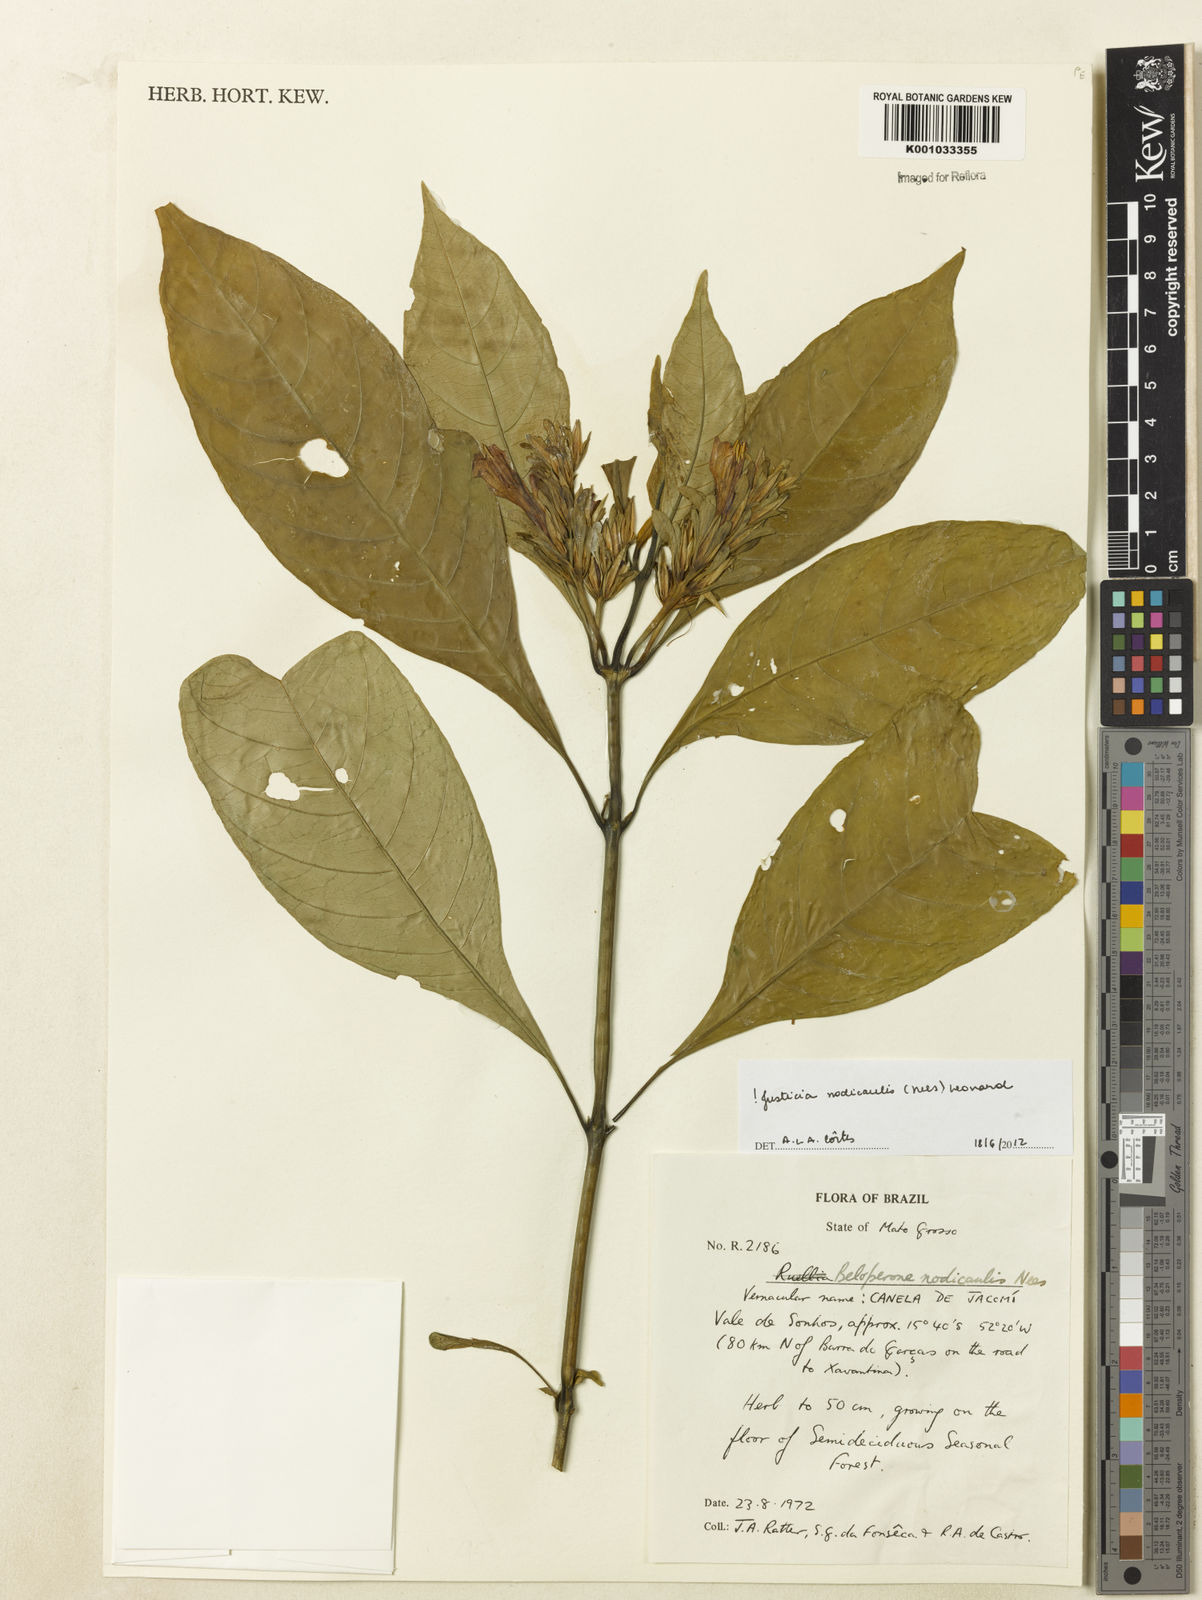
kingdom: Plantae
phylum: Tracheophyta
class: Magnoliopsida
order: Lamiales
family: Acanthaceae
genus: Justicia
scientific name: Justicia nodicaulis
